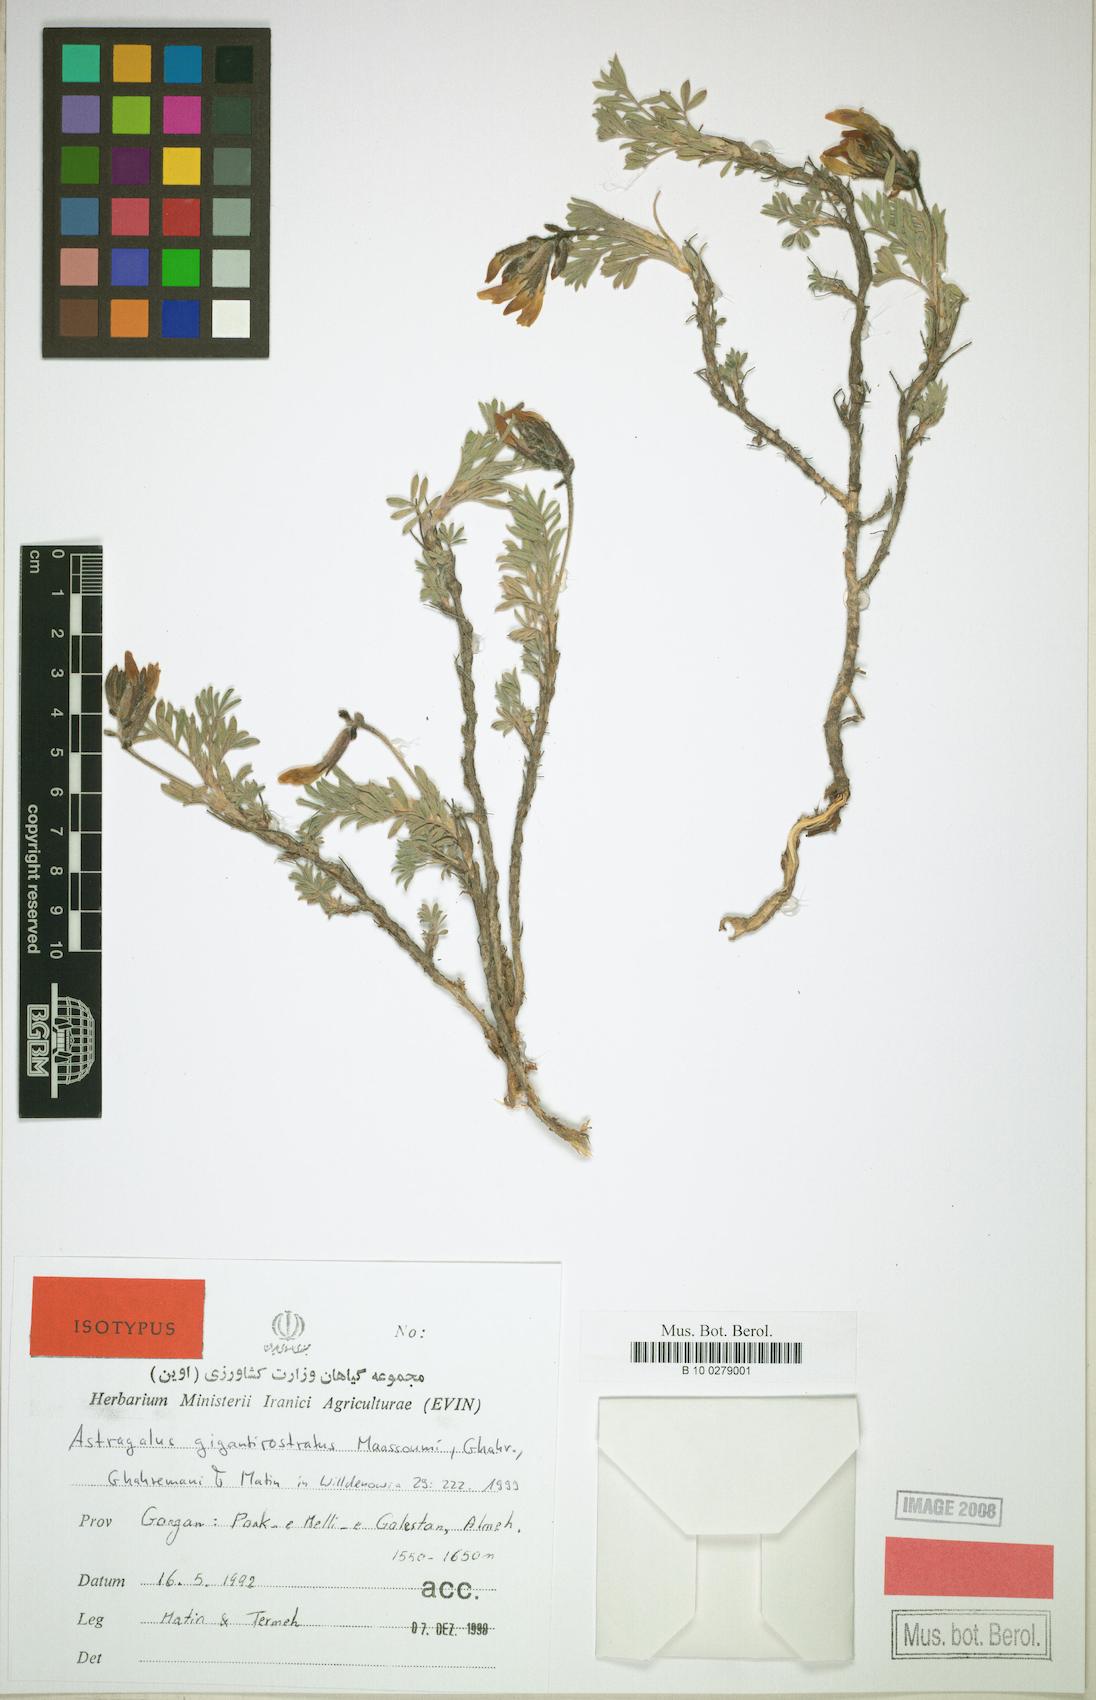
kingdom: Plantae
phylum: Tracheophyta
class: Magnoliopsida
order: Fabales
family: Fabaceae
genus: Astragalus
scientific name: Astragalus gigantirostratus
